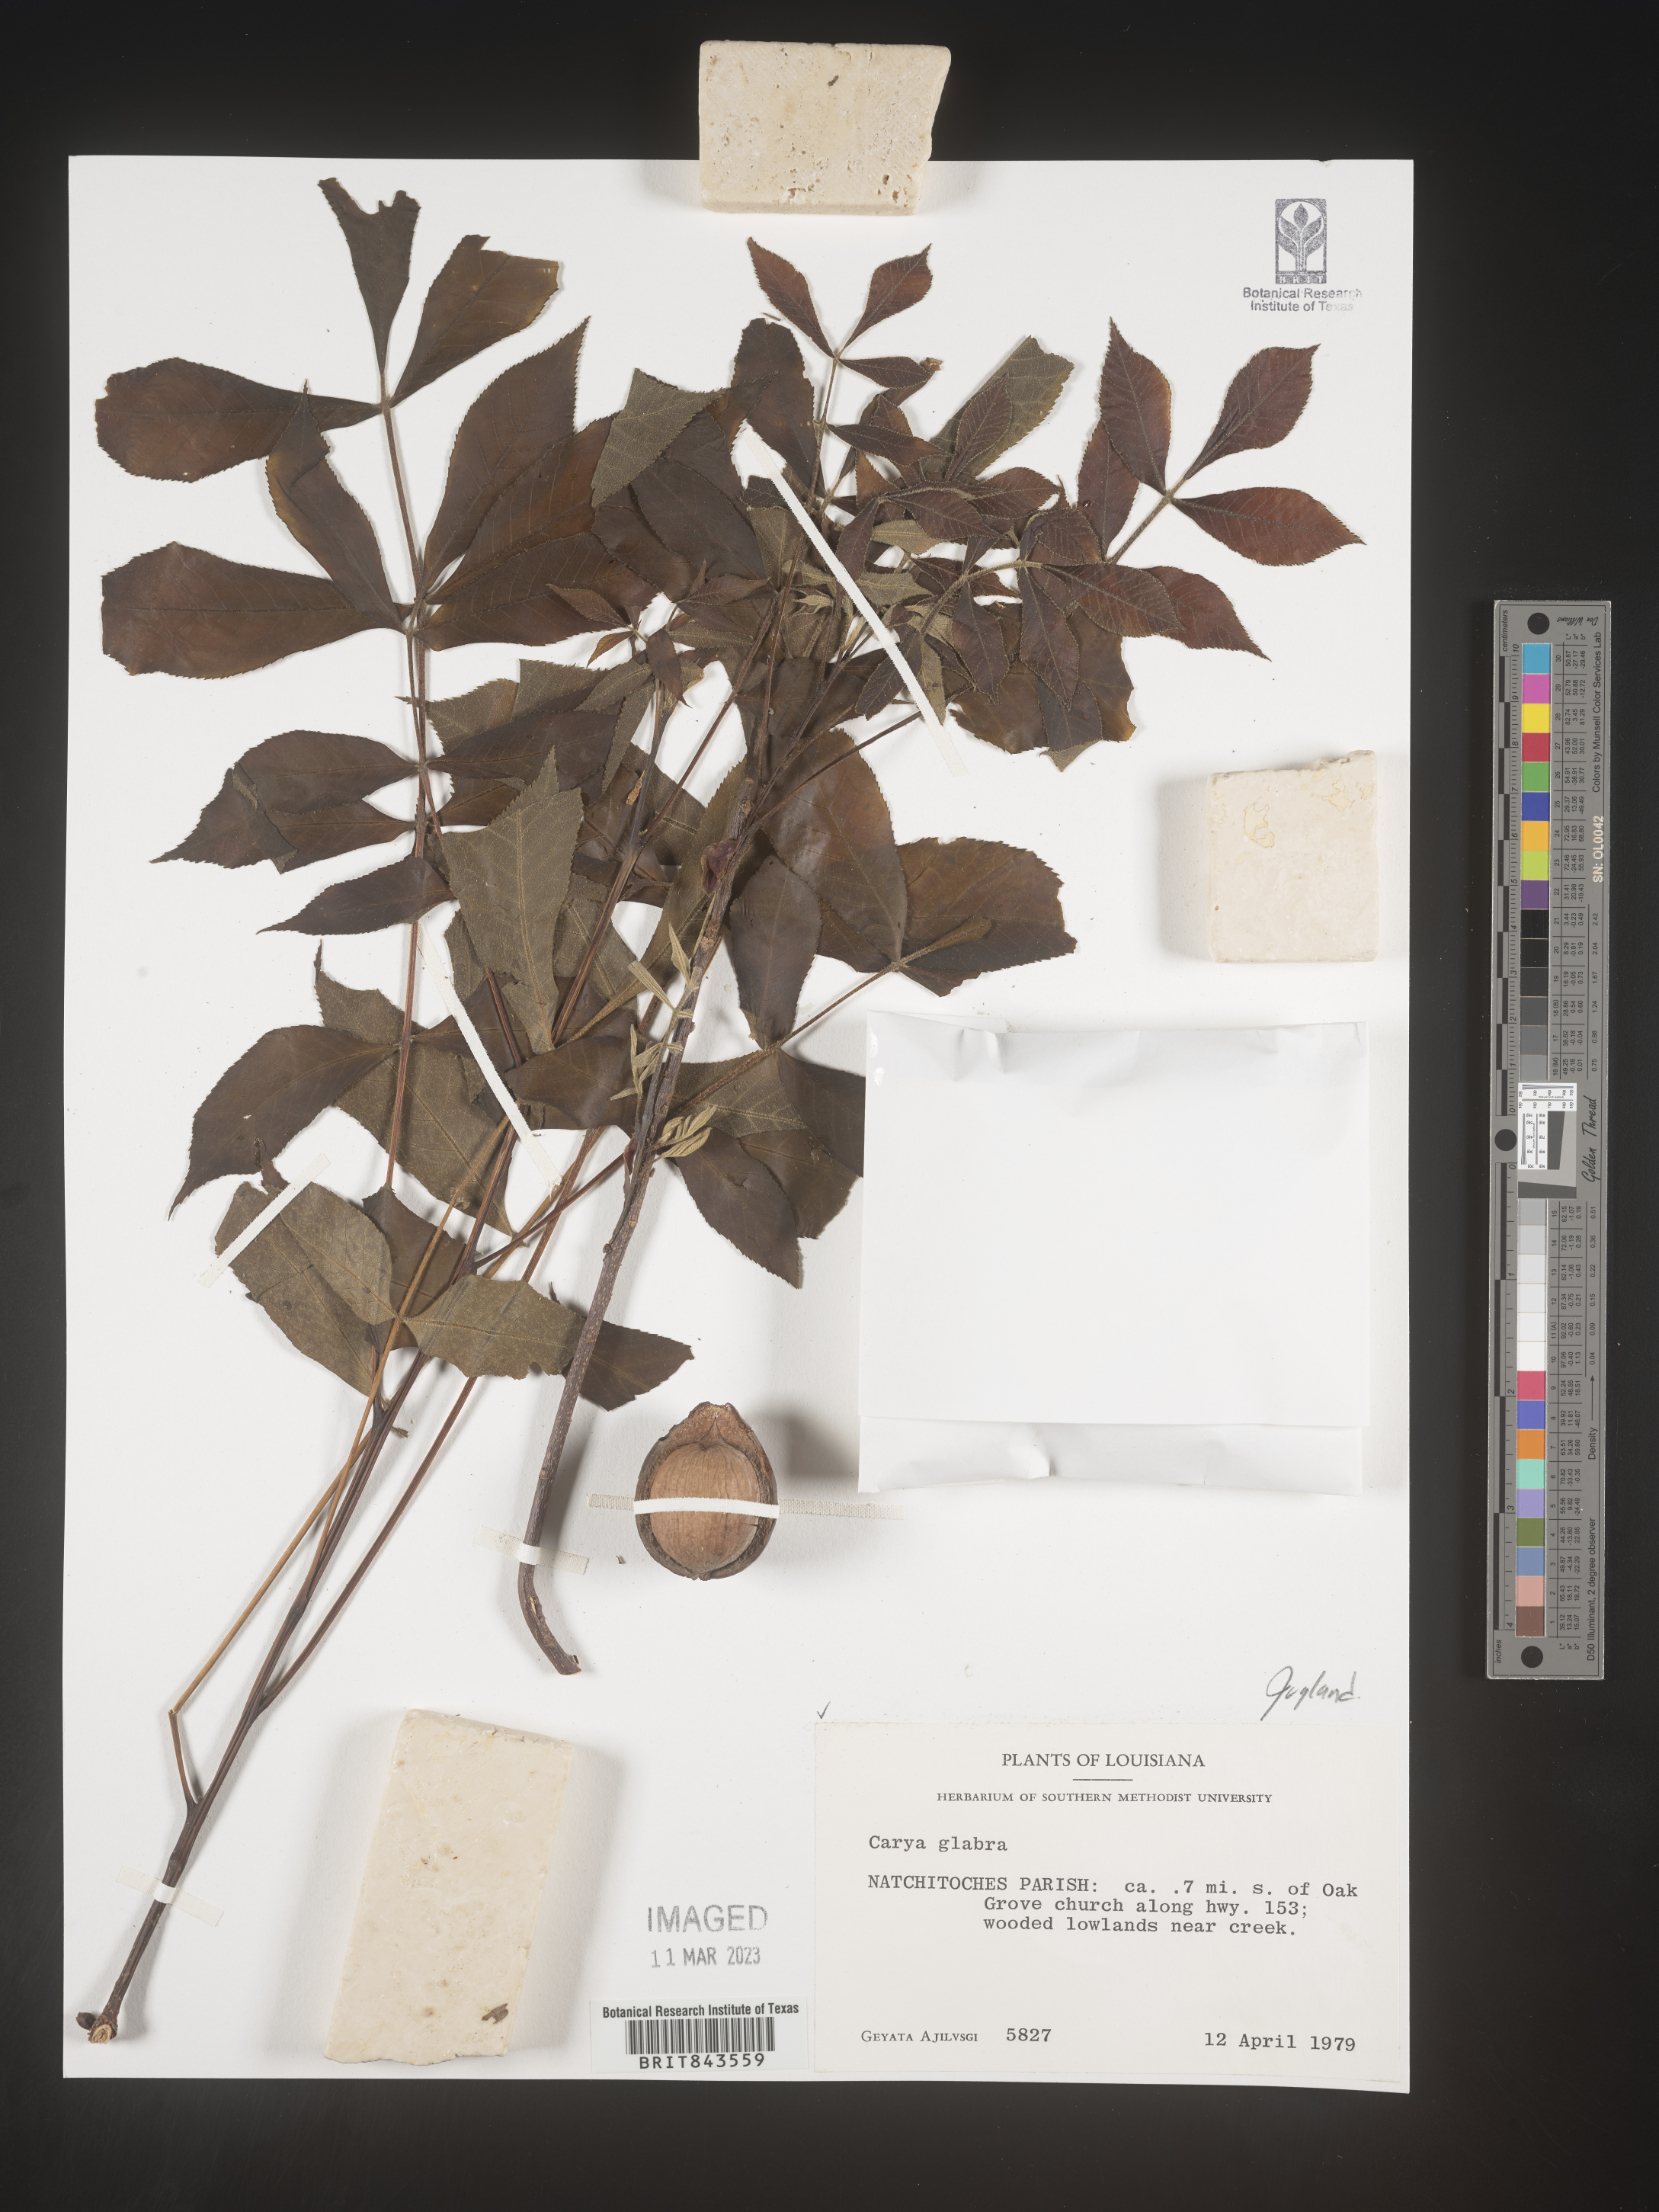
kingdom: Plantae
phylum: Tracheophyta
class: Magnoliopsida
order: Fagales
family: Juglandaceae
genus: Carya
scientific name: Carya glabra
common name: Pignut hickory
